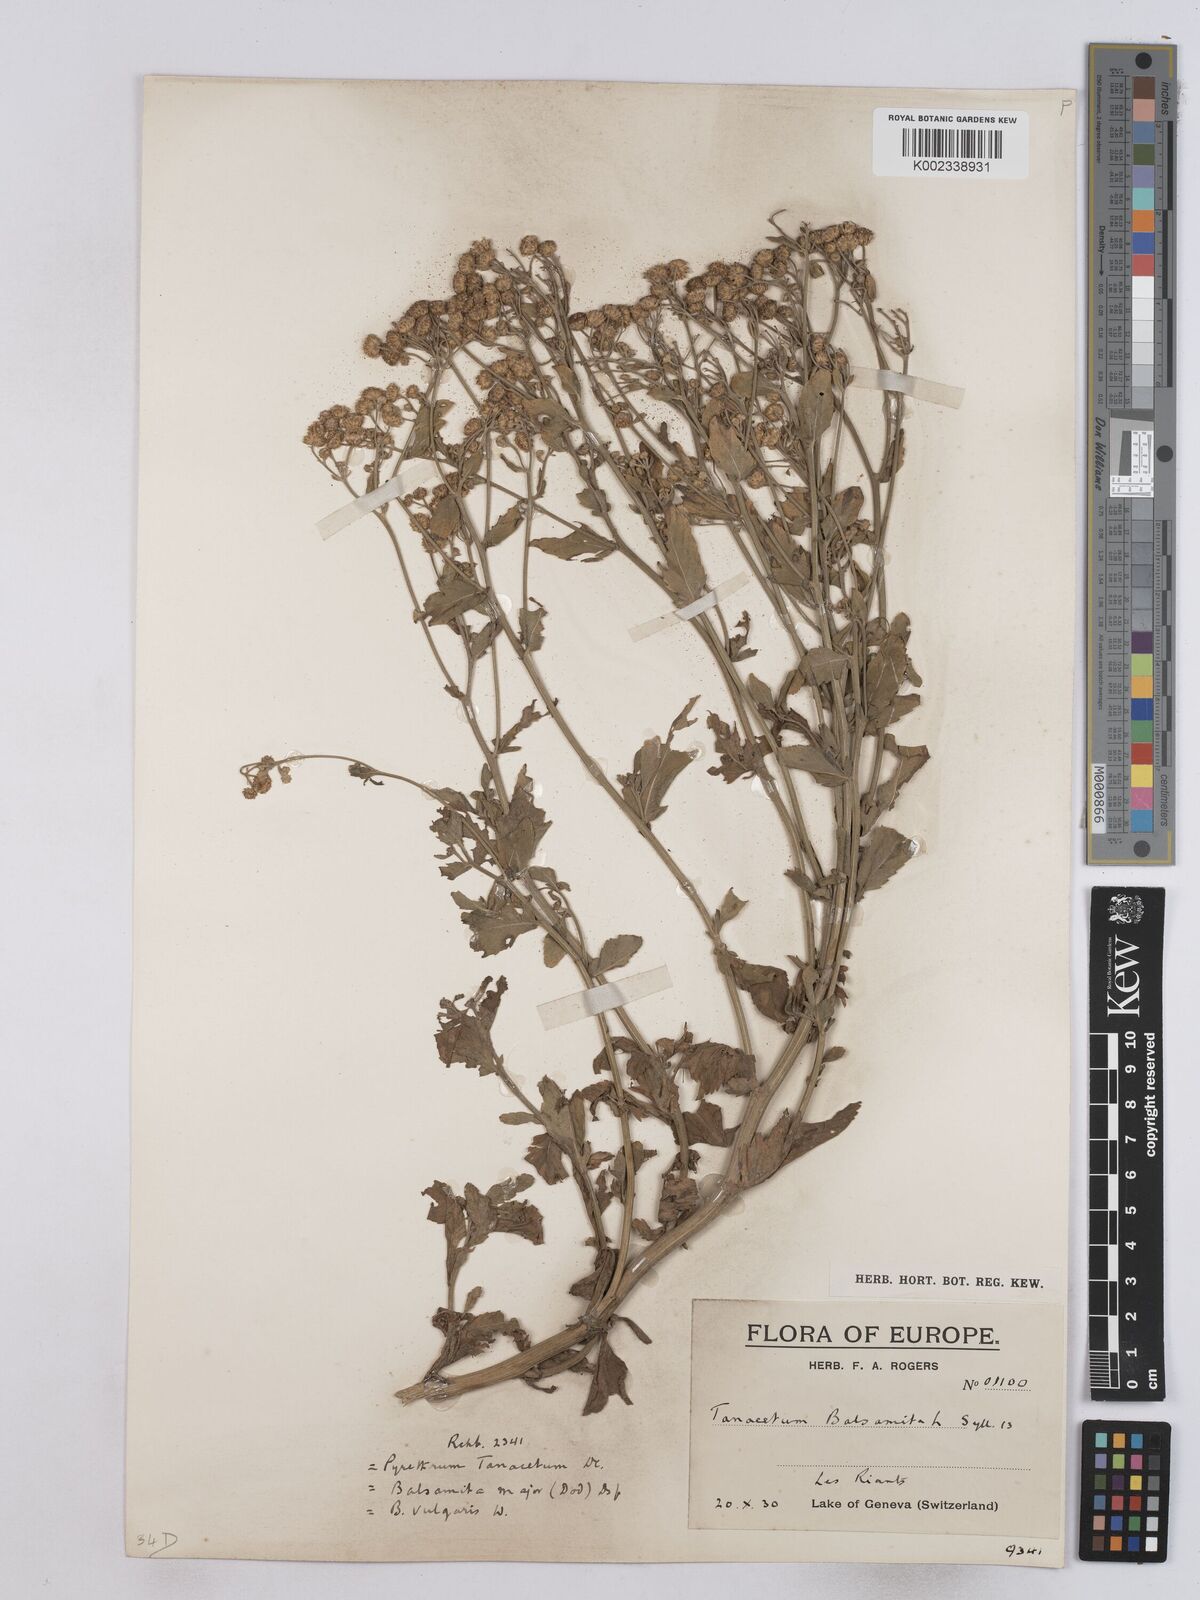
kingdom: Plantae
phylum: Tracheophyta
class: Magnoliopsida
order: Asterales
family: Asteraceae
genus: Tanacetum
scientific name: Tanacetum balsamita
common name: Costmary
